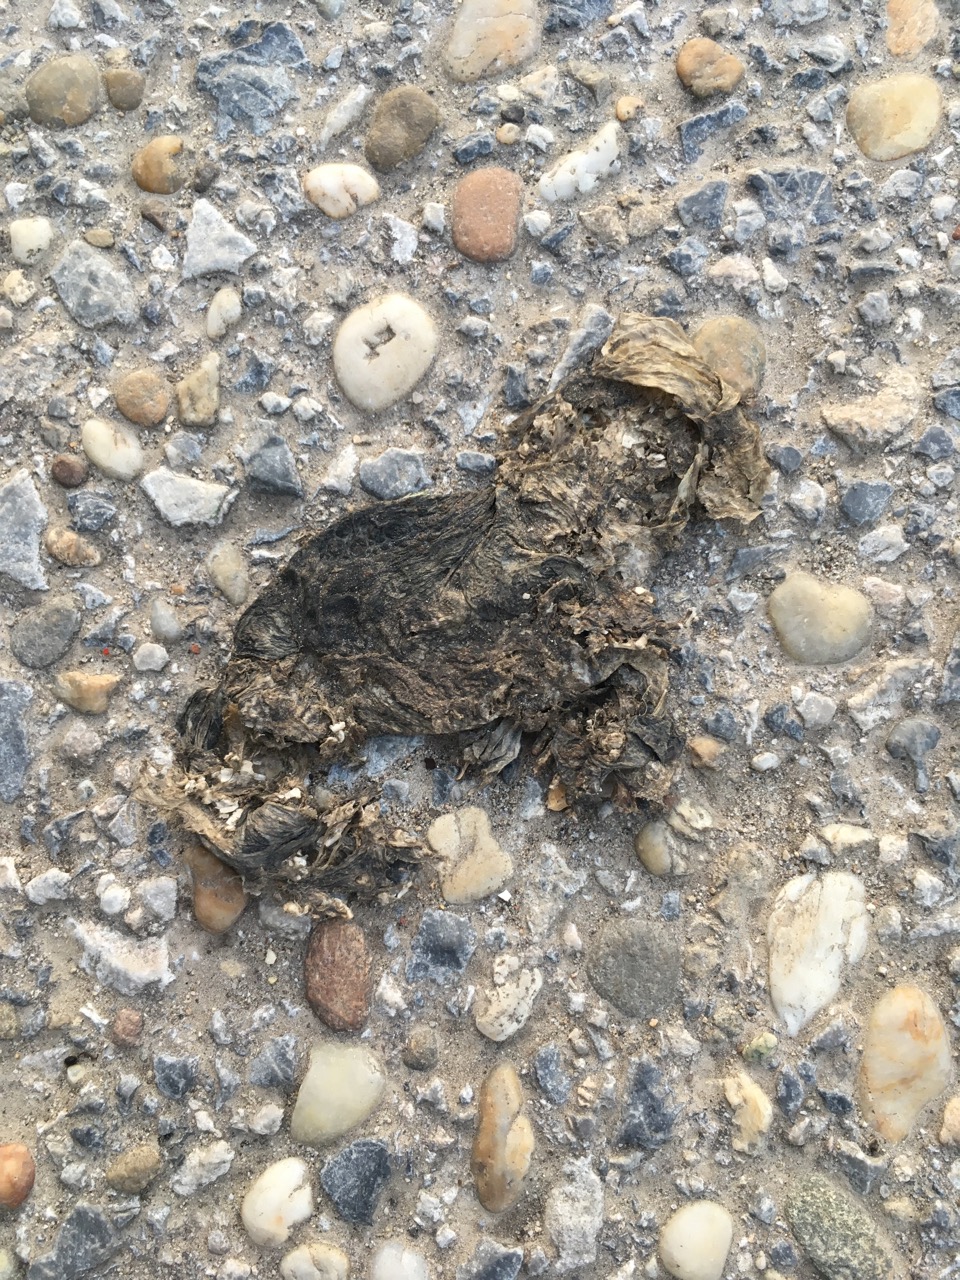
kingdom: Animalia
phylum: Chordata
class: Amphibia
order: Anura
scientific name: Anura
